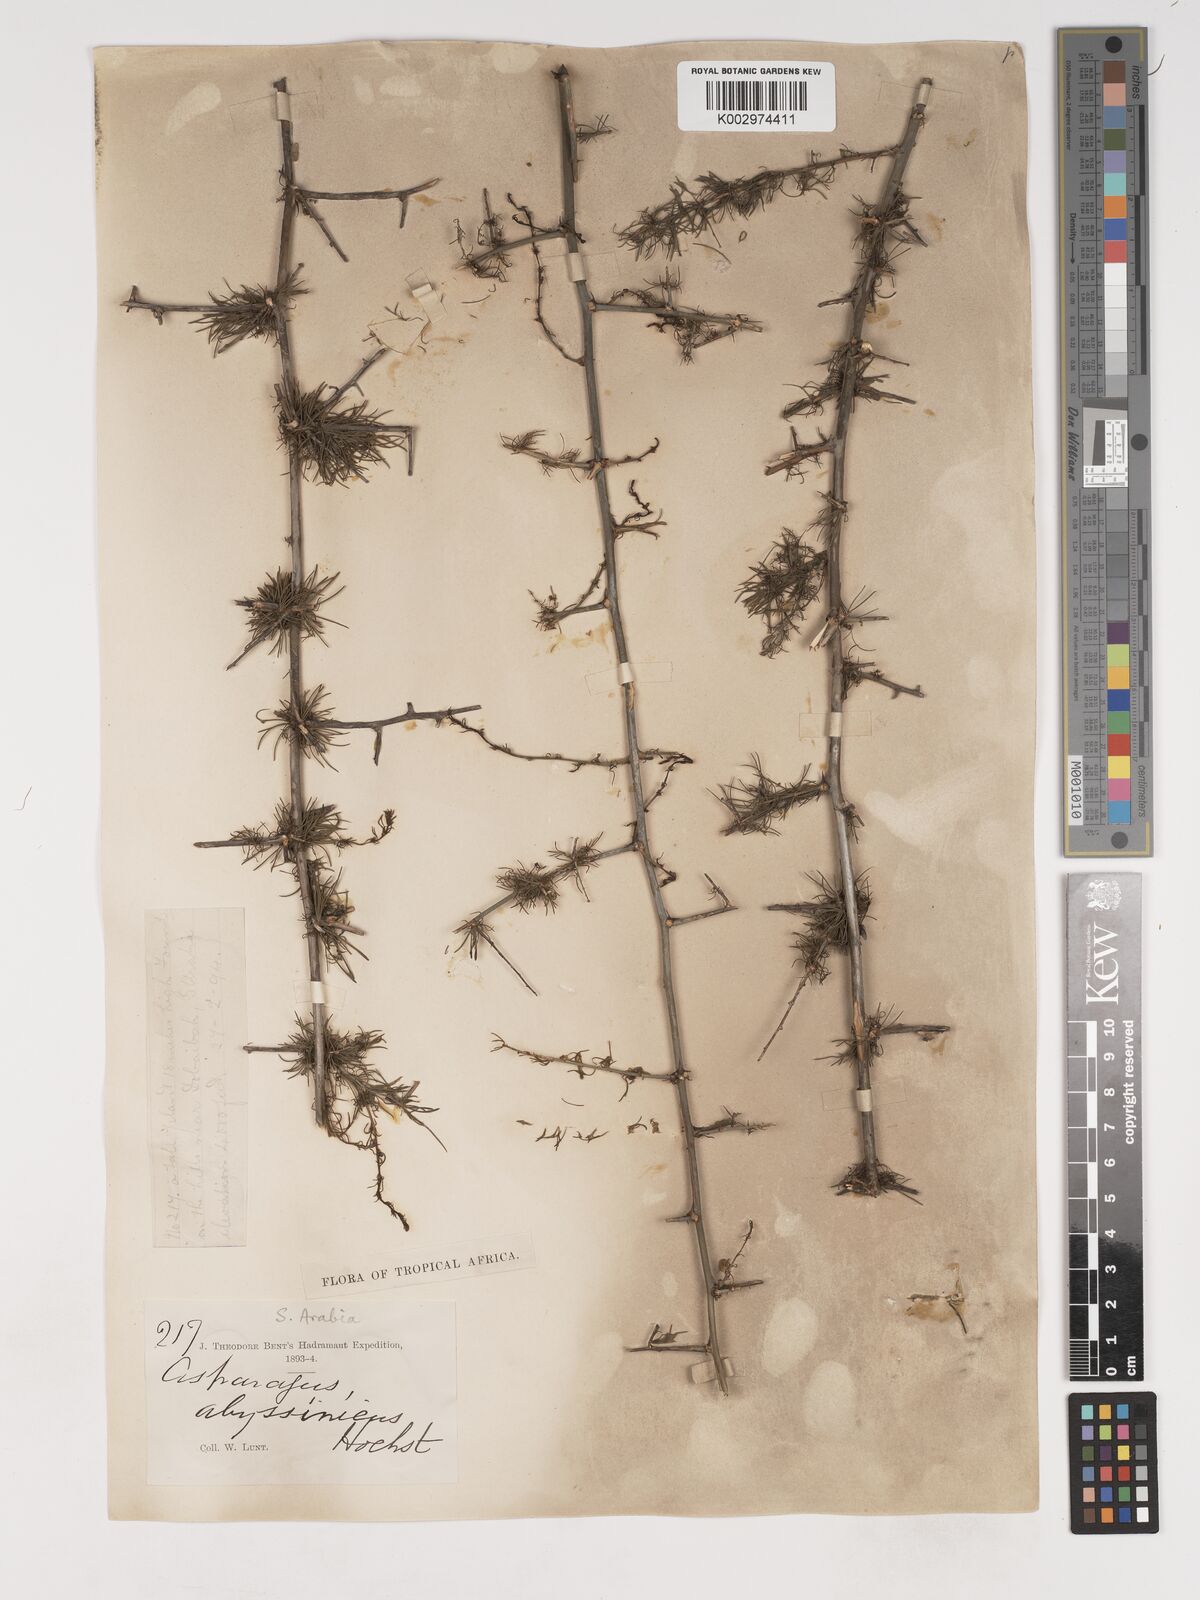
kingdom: Plantae
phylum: Tracheophyta
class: Liliopsida
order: Asparagales
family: Asparagaceae
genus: Asparagus
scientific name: Asparagus flagellaris
